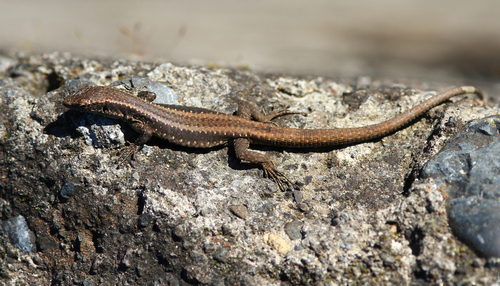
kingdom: Animalia
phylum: Chordata
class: Squamata
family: Lacertidae
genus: Teira
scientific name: Teira dugesii
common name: Madeira lizard
